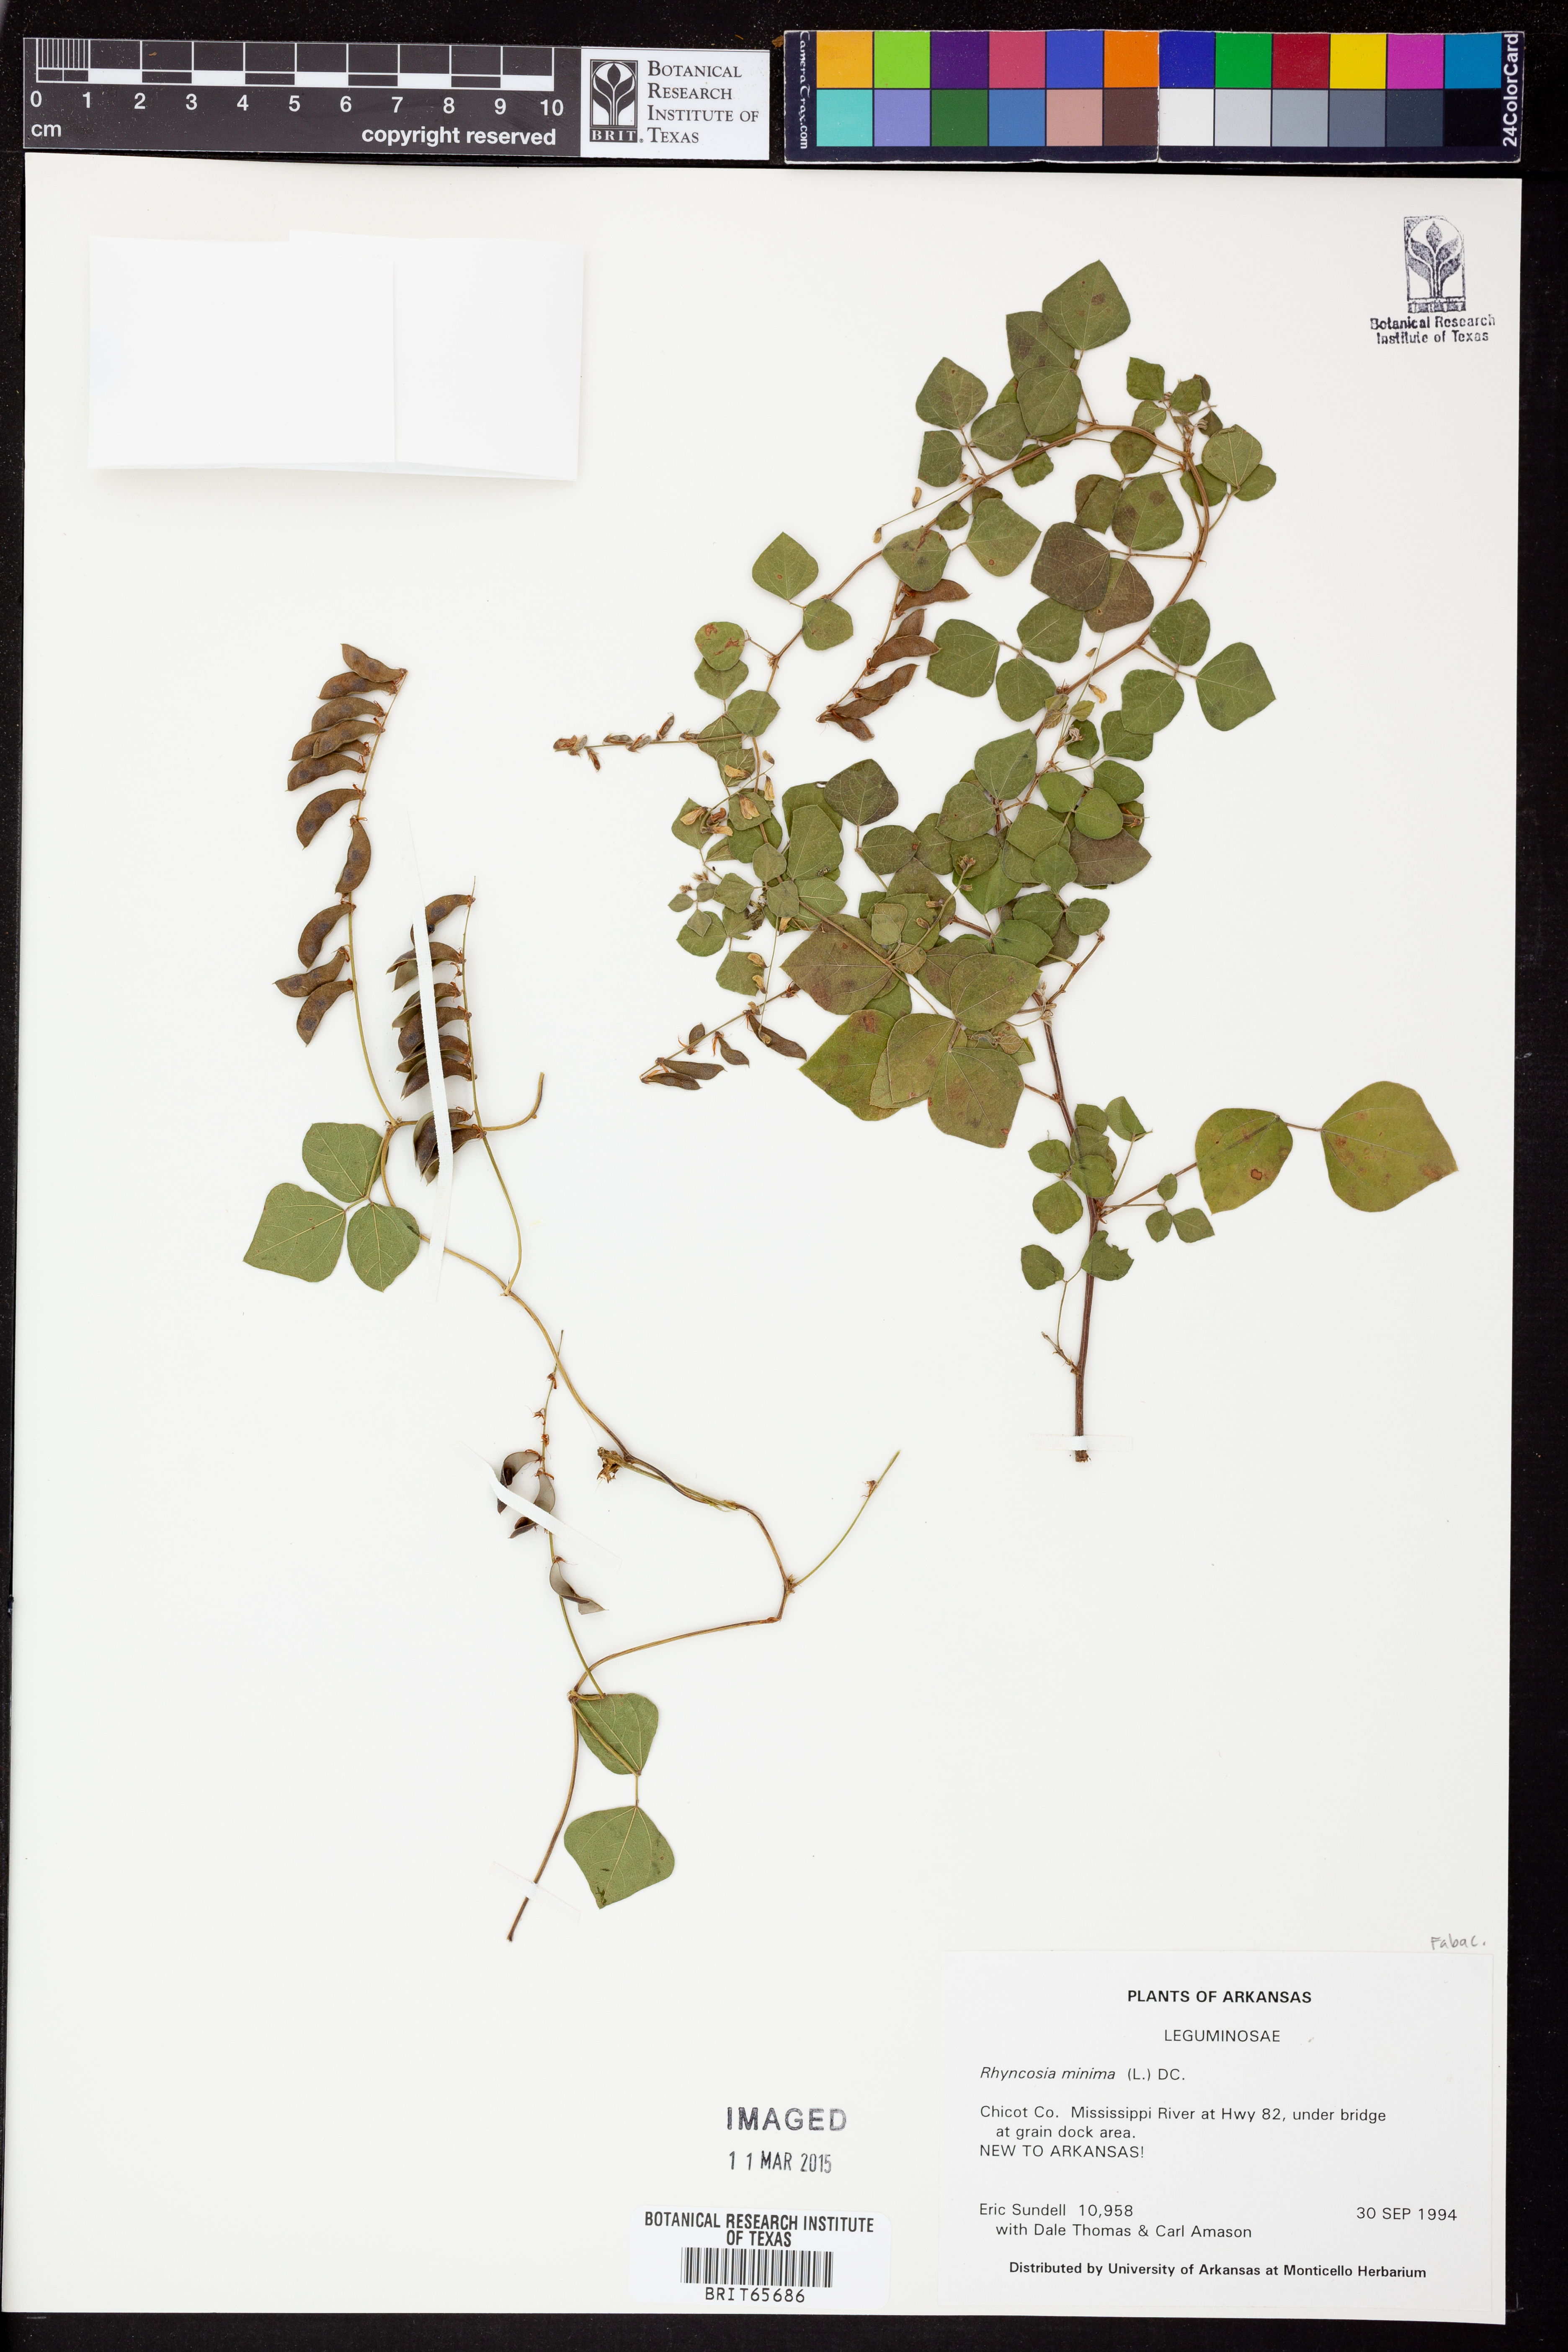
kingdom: Plantae
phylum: Tracheophyta
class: Magnoliopsida
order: Fabales
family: Fabaceae
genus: Rhynchosia
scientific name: Rhynchosia
